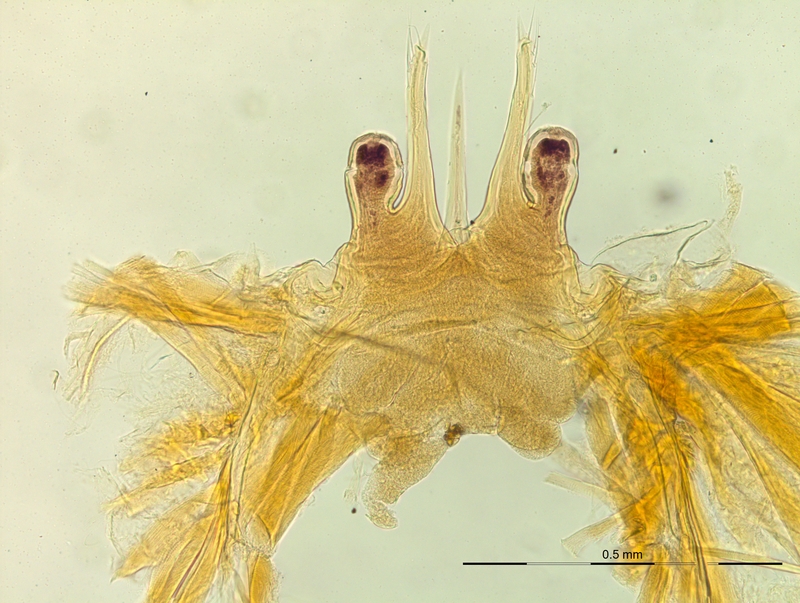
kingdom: Animalia
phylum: Arthropoda
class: Diplopoda
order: Chordeumatida
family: Craspedosomatidae
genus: Macheiriophoron
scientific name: Macheiriophoron alemannicum
